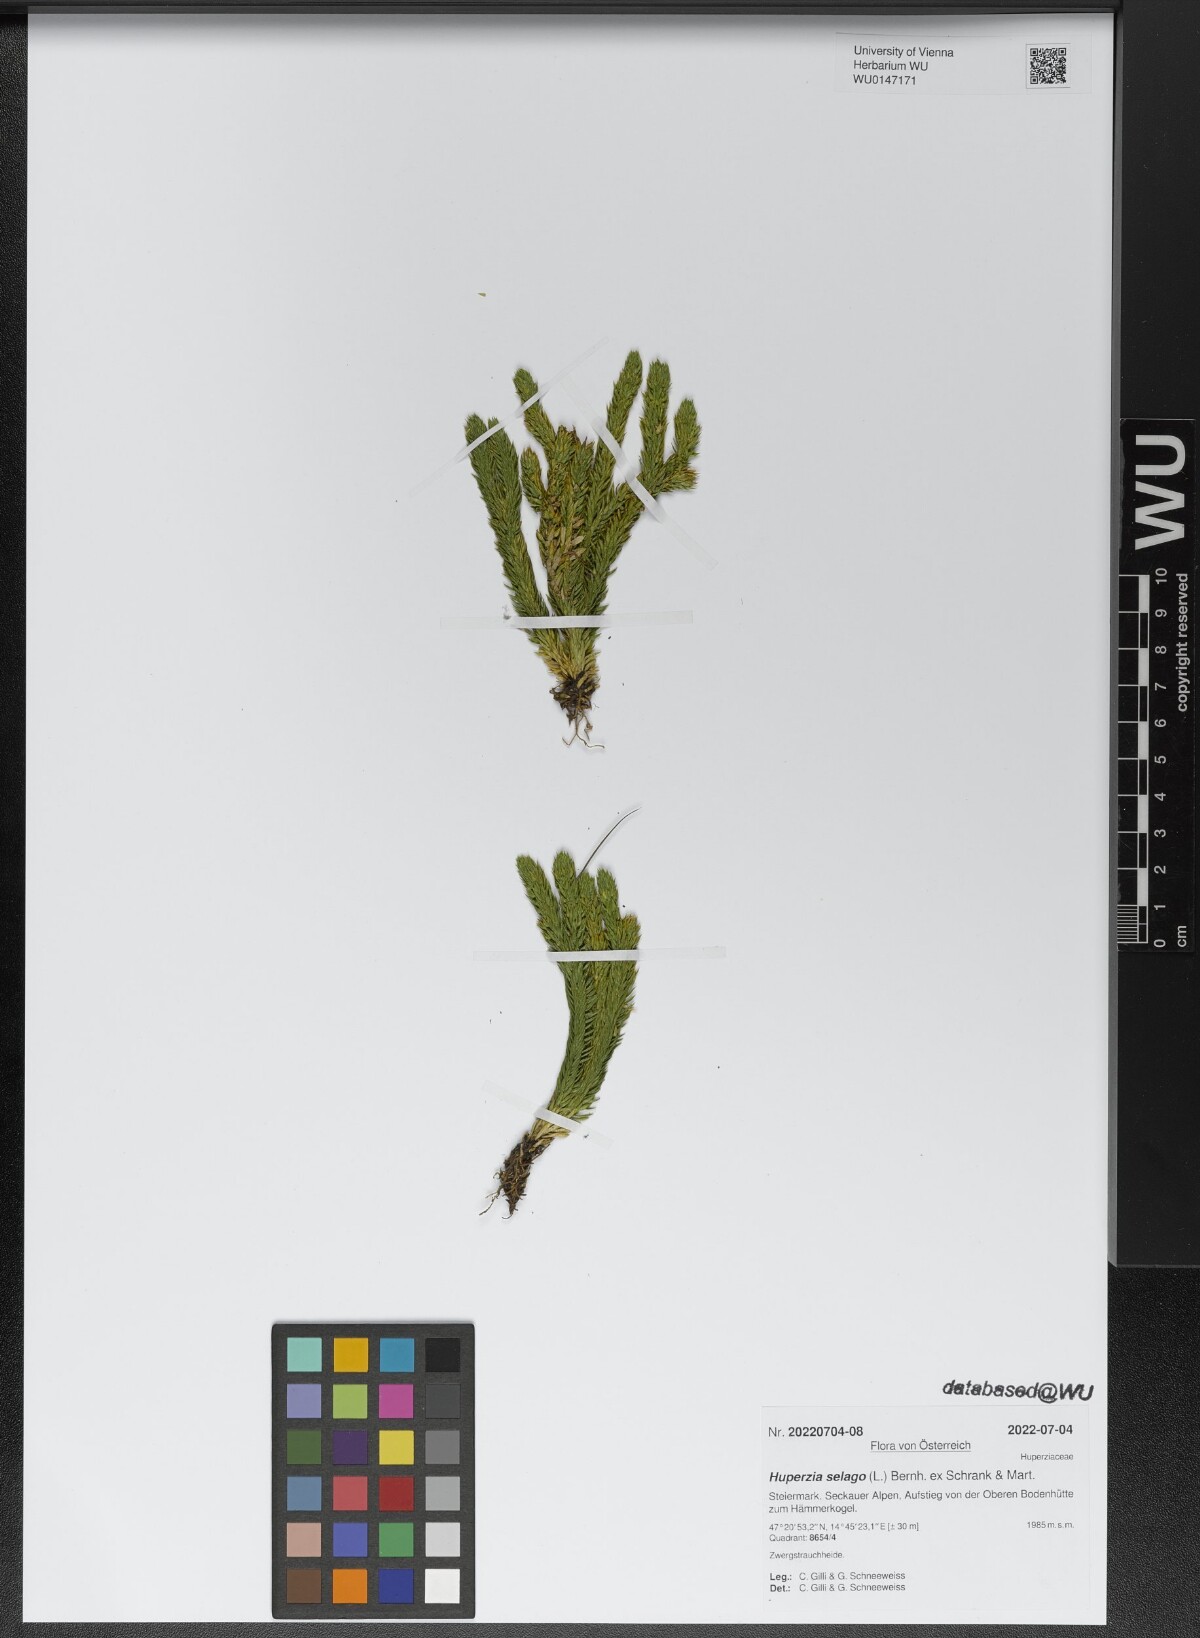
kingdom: Plantae
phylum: Tracheophyta
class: Lycopodiopsida
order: Lycopodiales
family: Lycopodiaceae
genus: Huperzia
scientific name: Huperzia selago
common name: Northern firmoss
